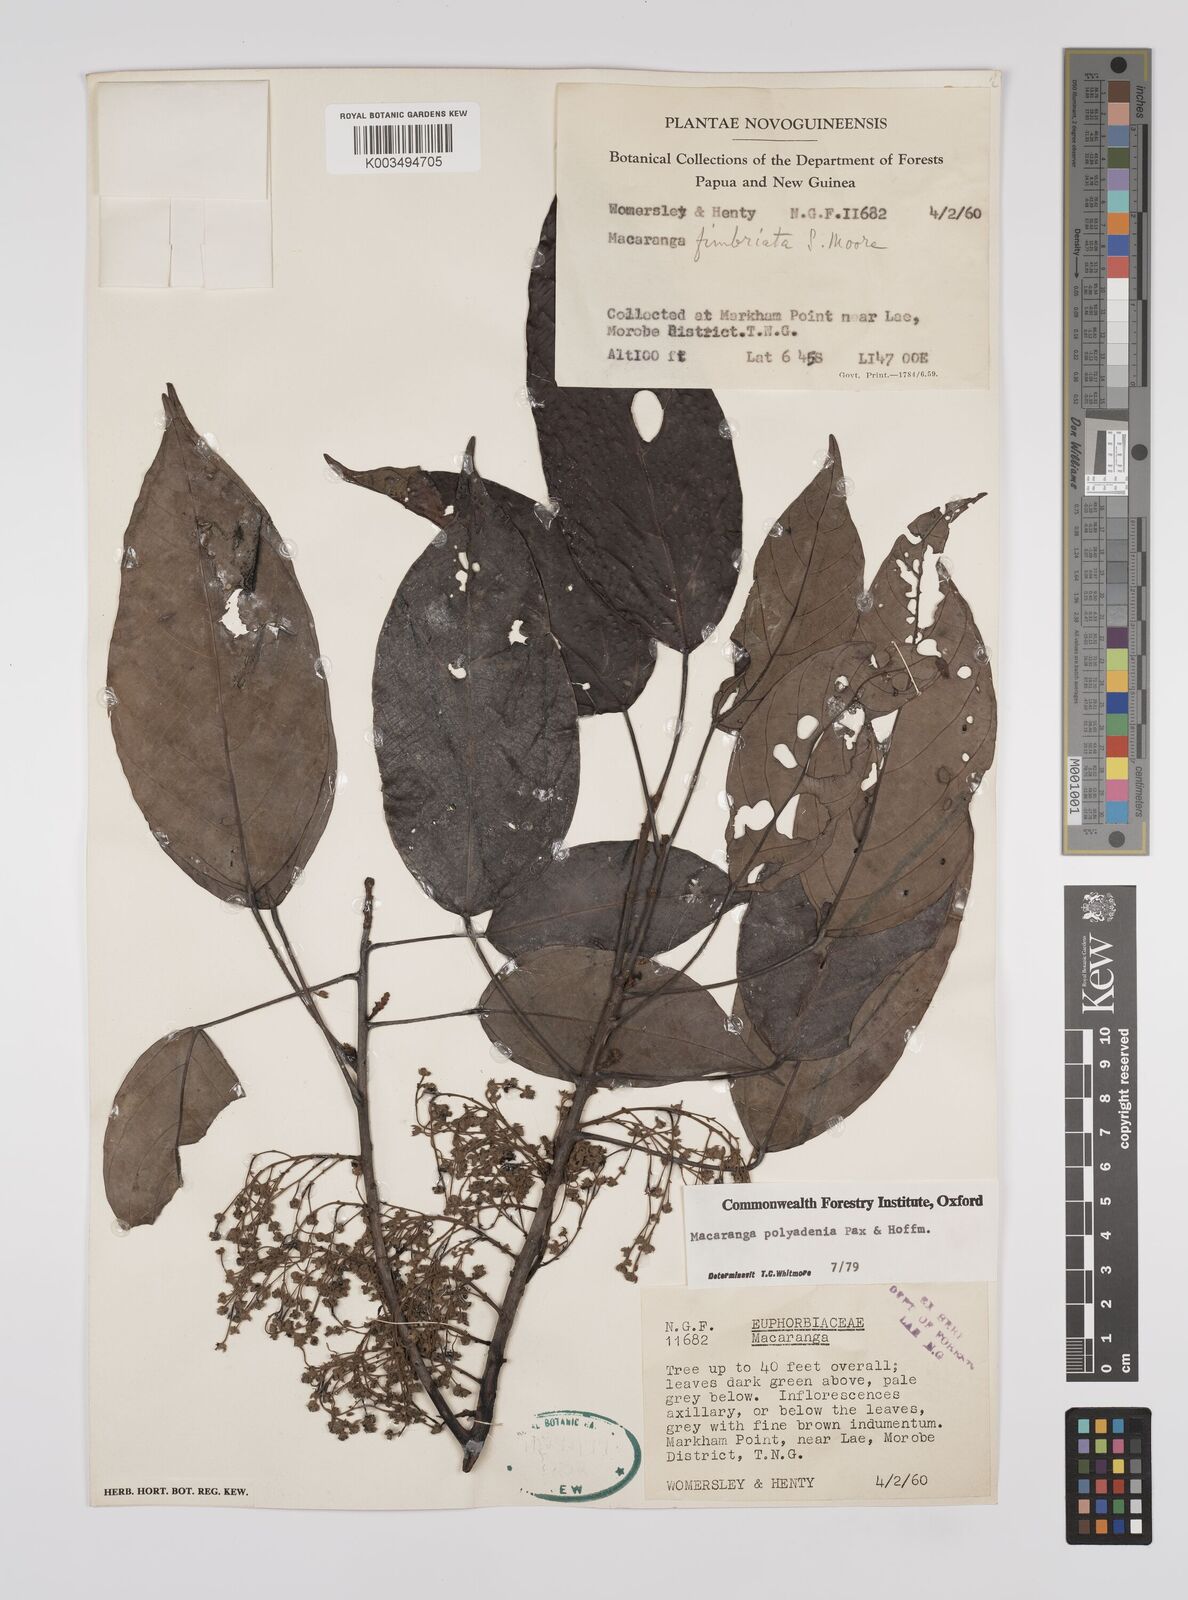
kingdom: Plantae
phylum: Tracheophyta
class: Magnoliopsida
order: Malpighiales
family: Euphorbiaceae
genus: Macaranga
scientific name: Macaranga polyadenia
